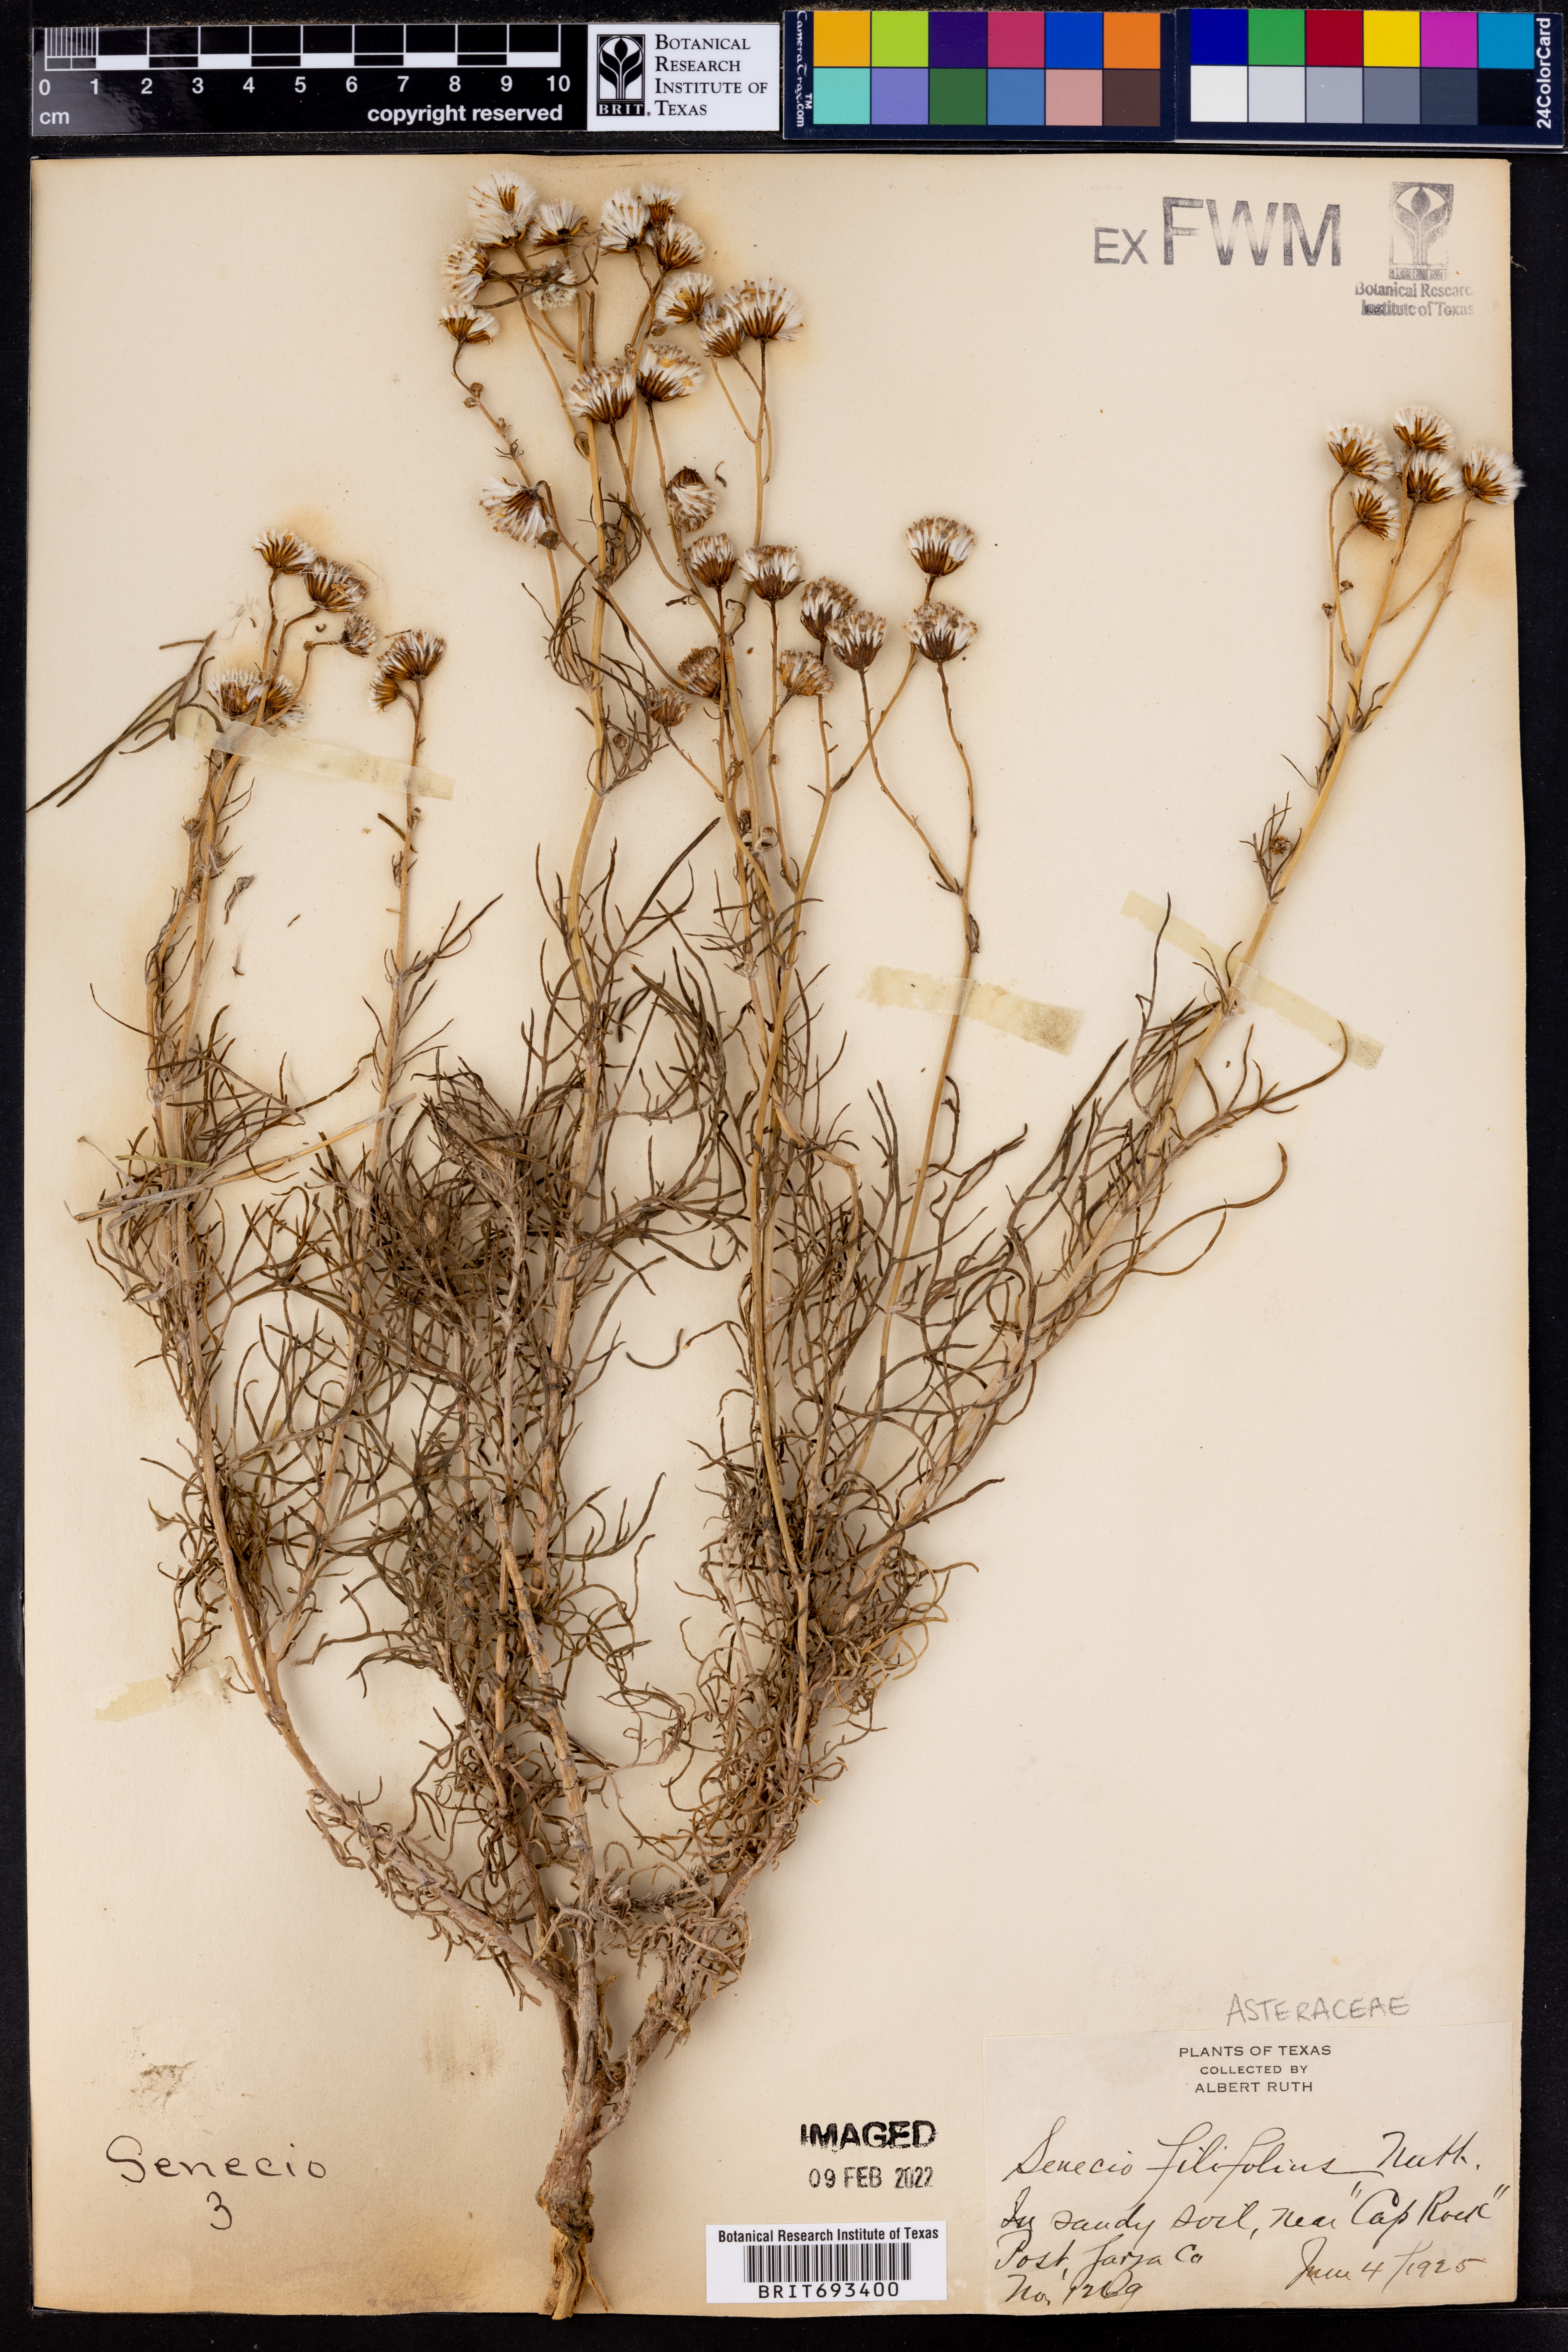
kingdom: Plantae
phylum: Tracheophyta
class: Magnoliopsida
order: Asterales
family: Asteraceae
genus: Senecio
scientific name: Senecio flaccidus
